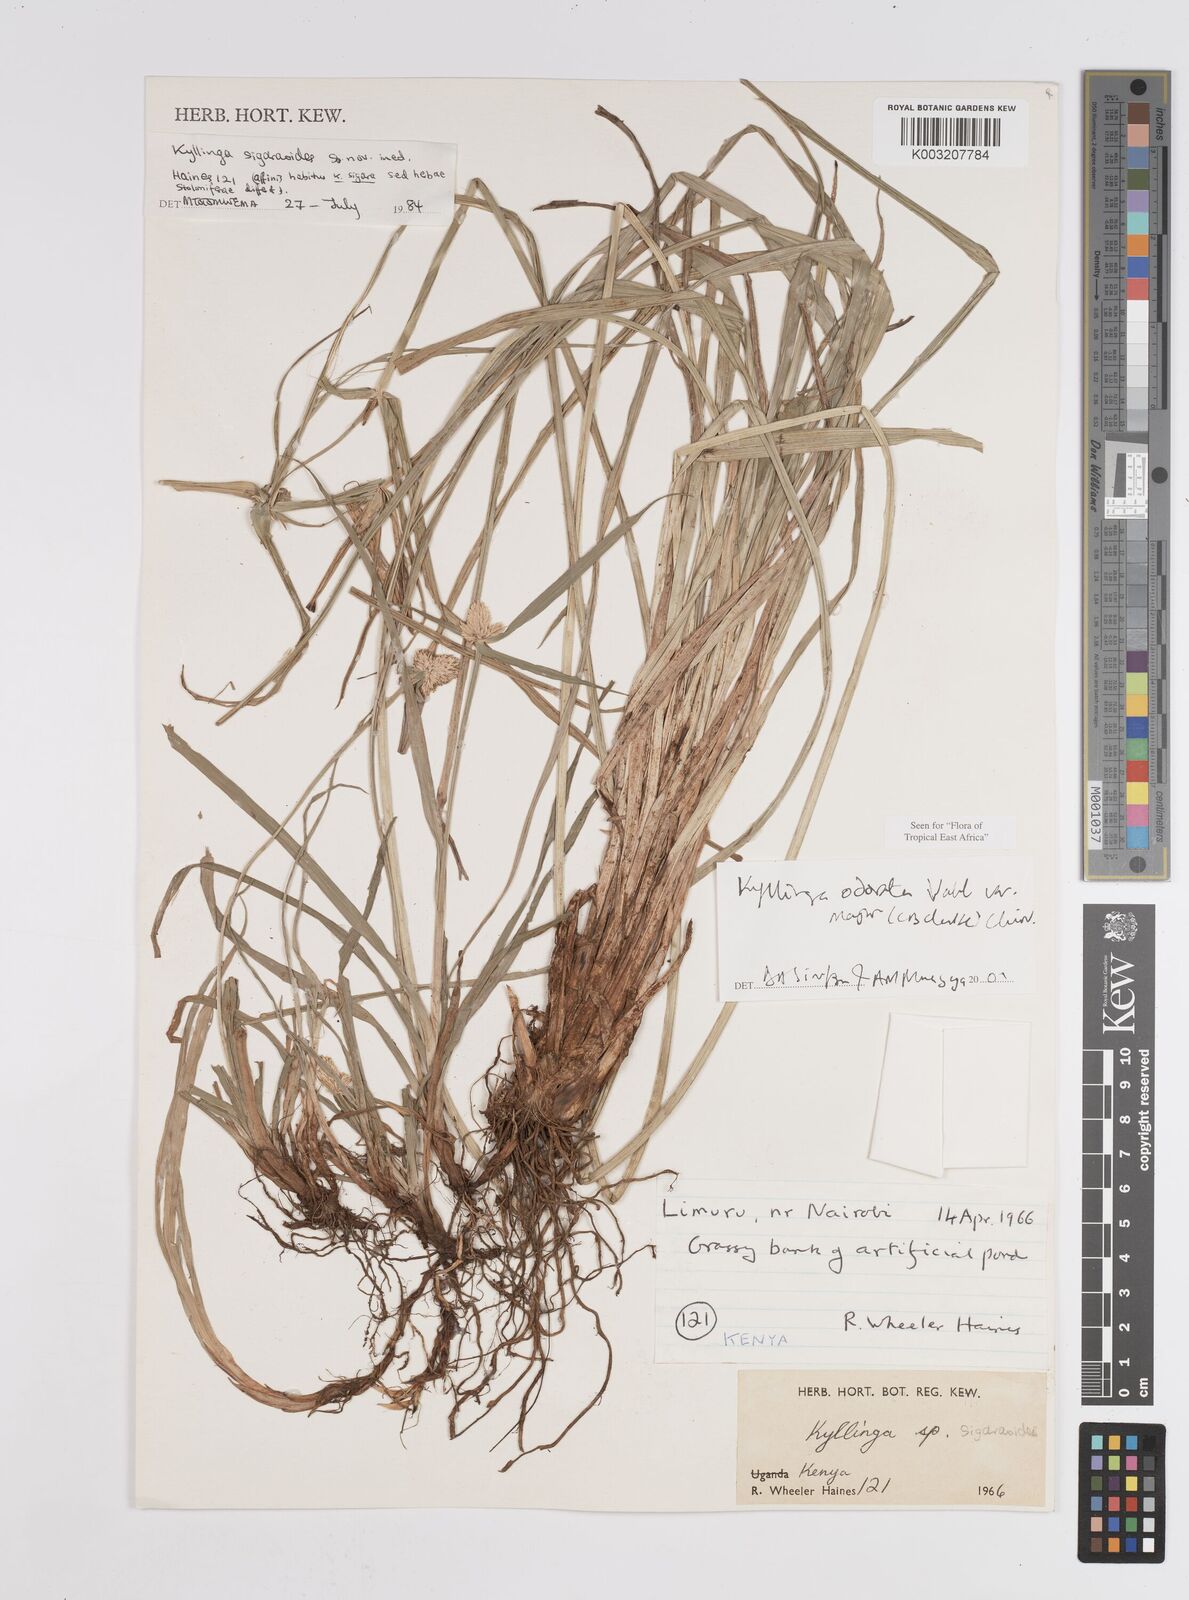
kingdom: Plantae
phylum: Tracheophyta
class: Liliopsida
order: Poales
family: Cyperaceae
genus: Cyperus
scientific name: Cyperus
